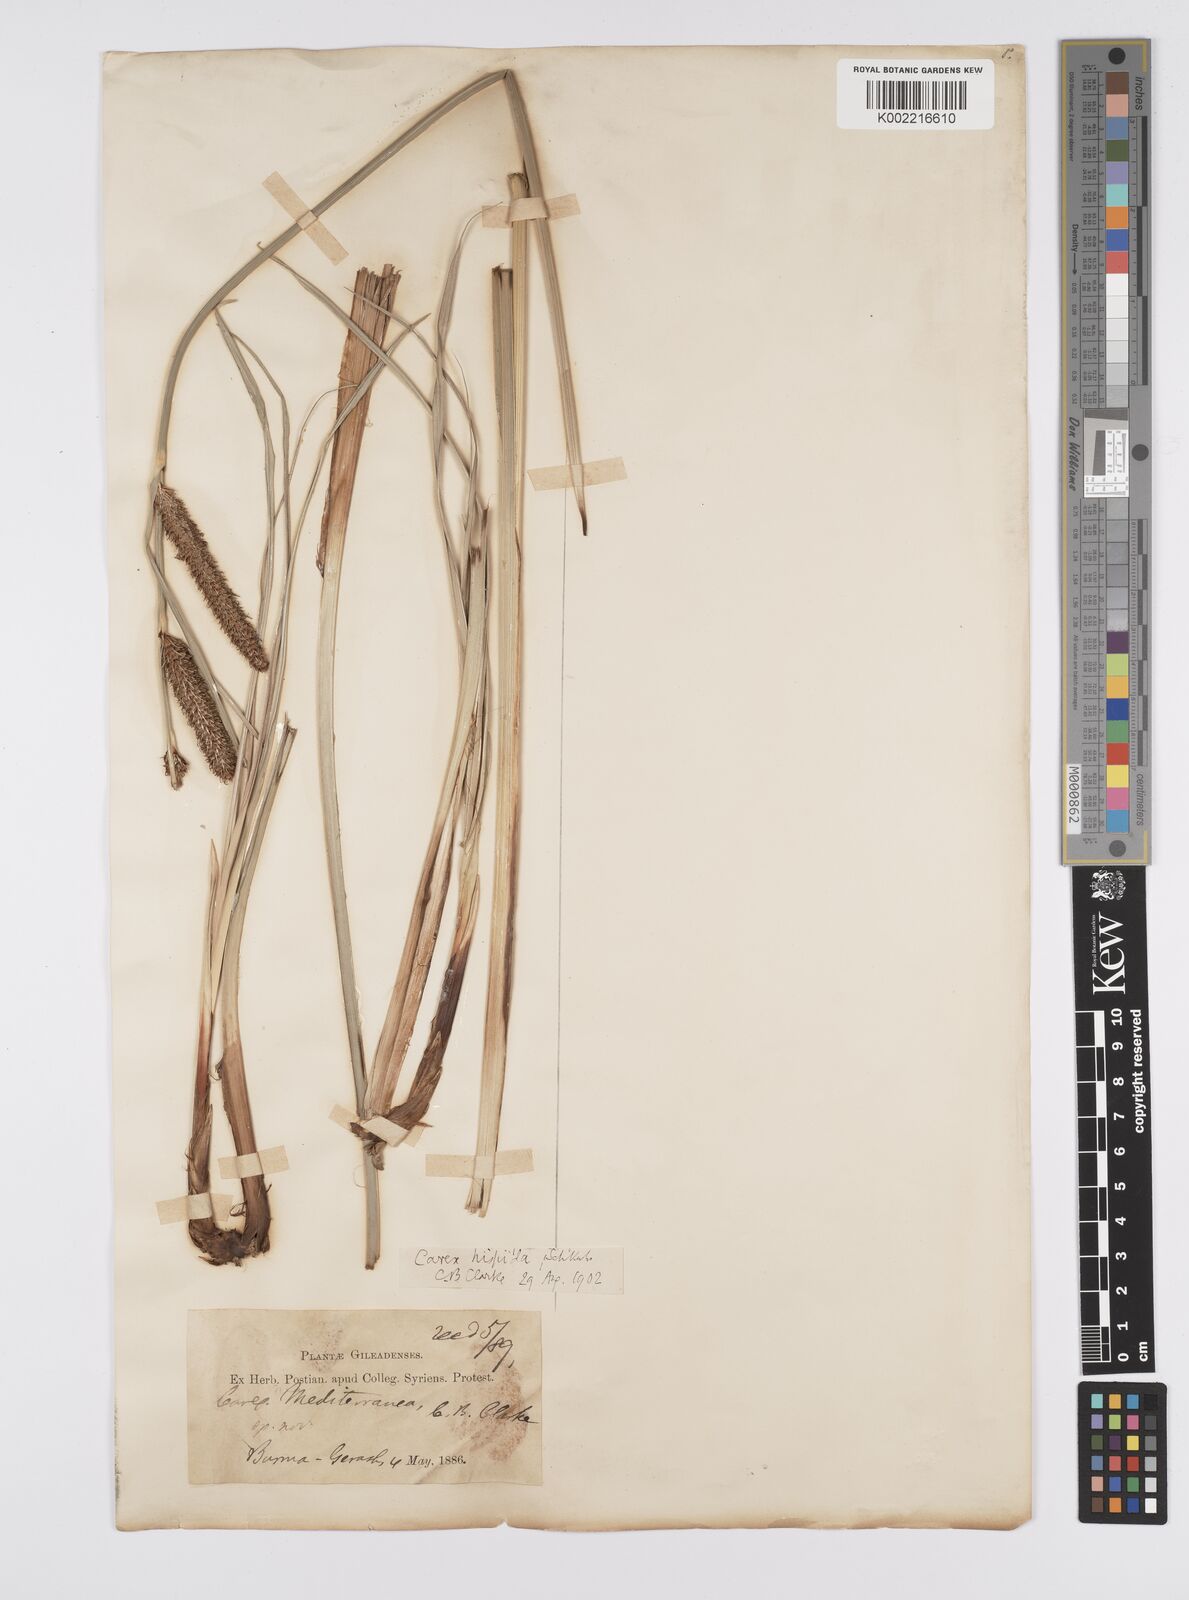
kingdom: Plantae
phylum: Tracheophyta
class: Liliopsida
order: Poales
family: Cyperaceae
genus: Carex
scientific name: Carex hispida
